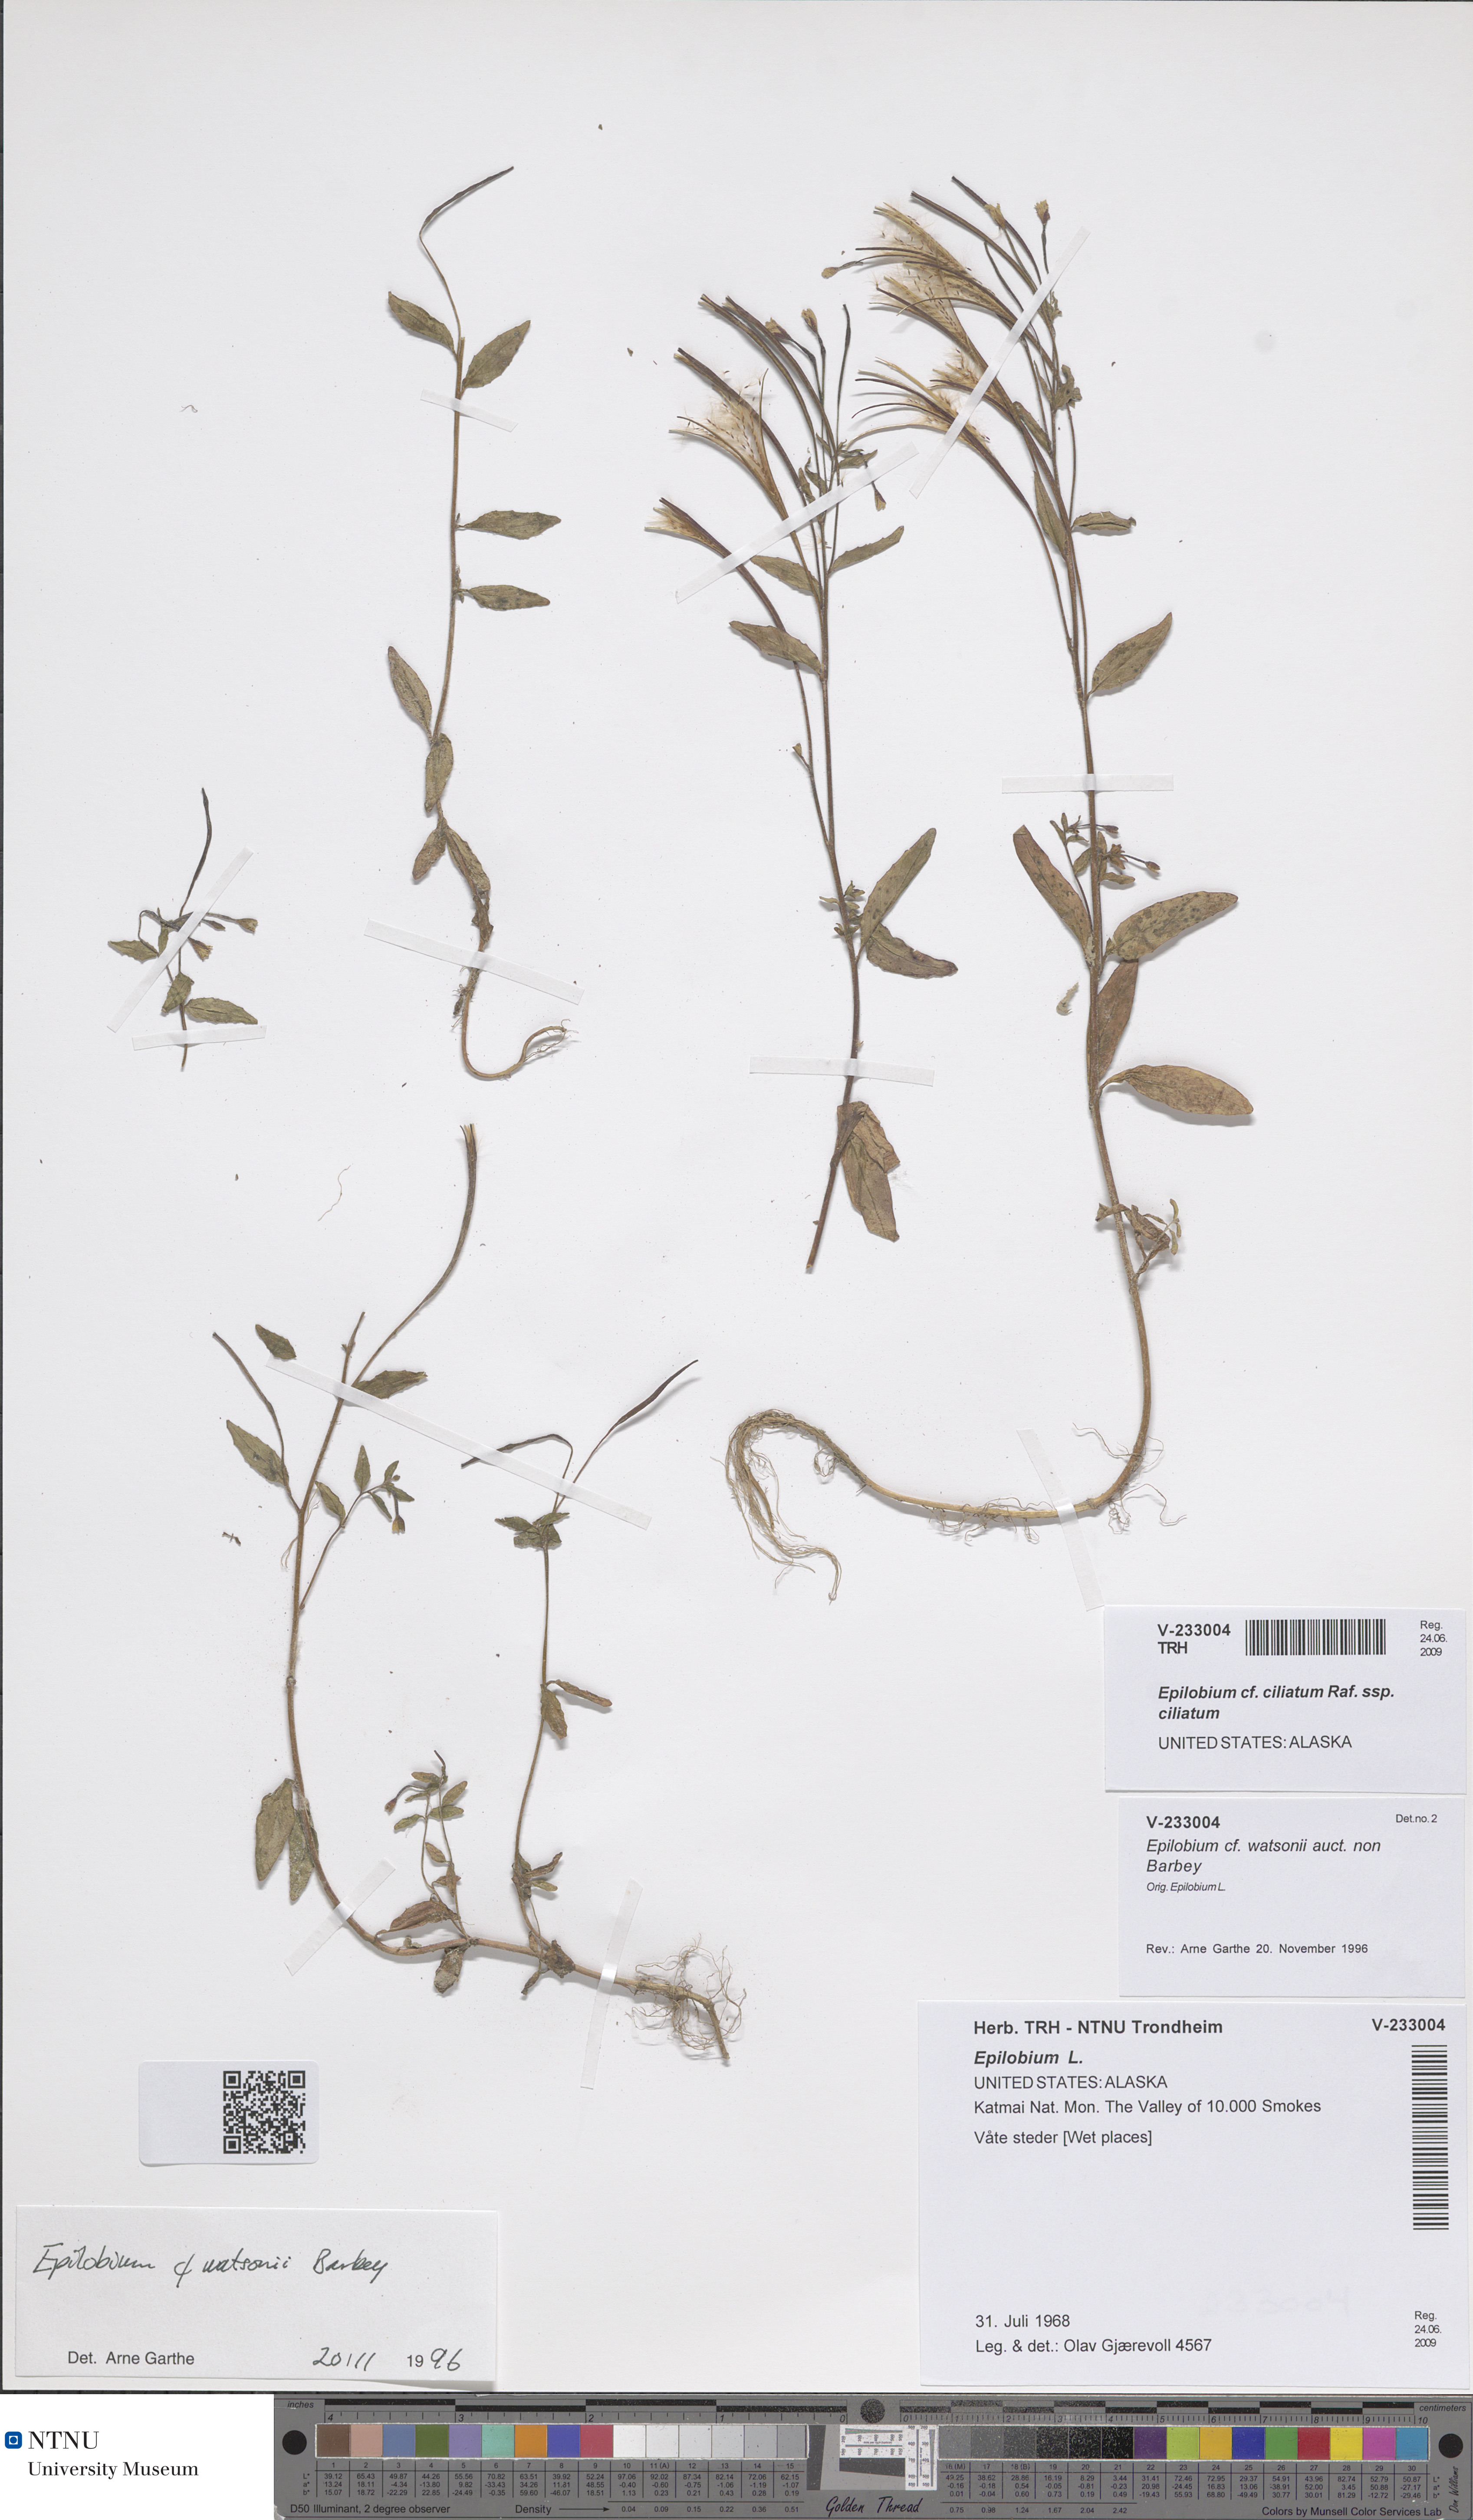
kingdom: Plantae
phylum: Tracheophyta
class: Magnoliopsida
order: Myrtales
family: Onagraceae
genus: Epilobium
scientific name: Epilobium ciliatum
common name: American willowherb
